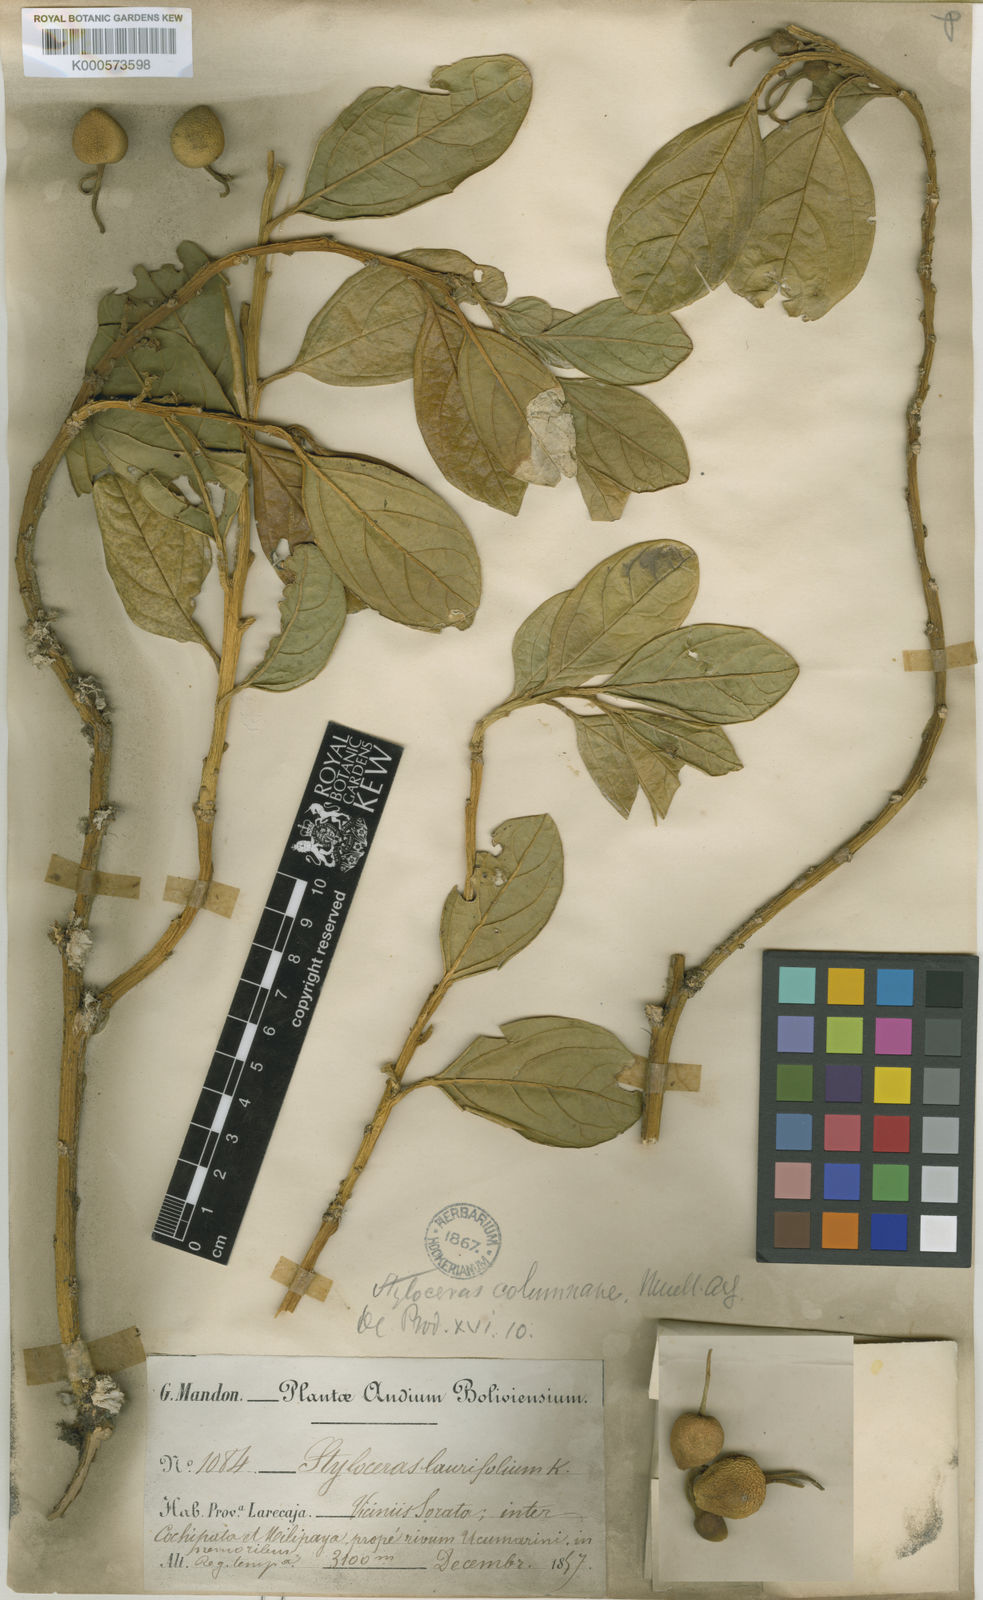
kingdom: Plantae
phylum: Tracheophyta
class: Magnoliopsida
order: Buxales
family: Buxaceae
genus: Styloceras
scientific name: Styloceras
